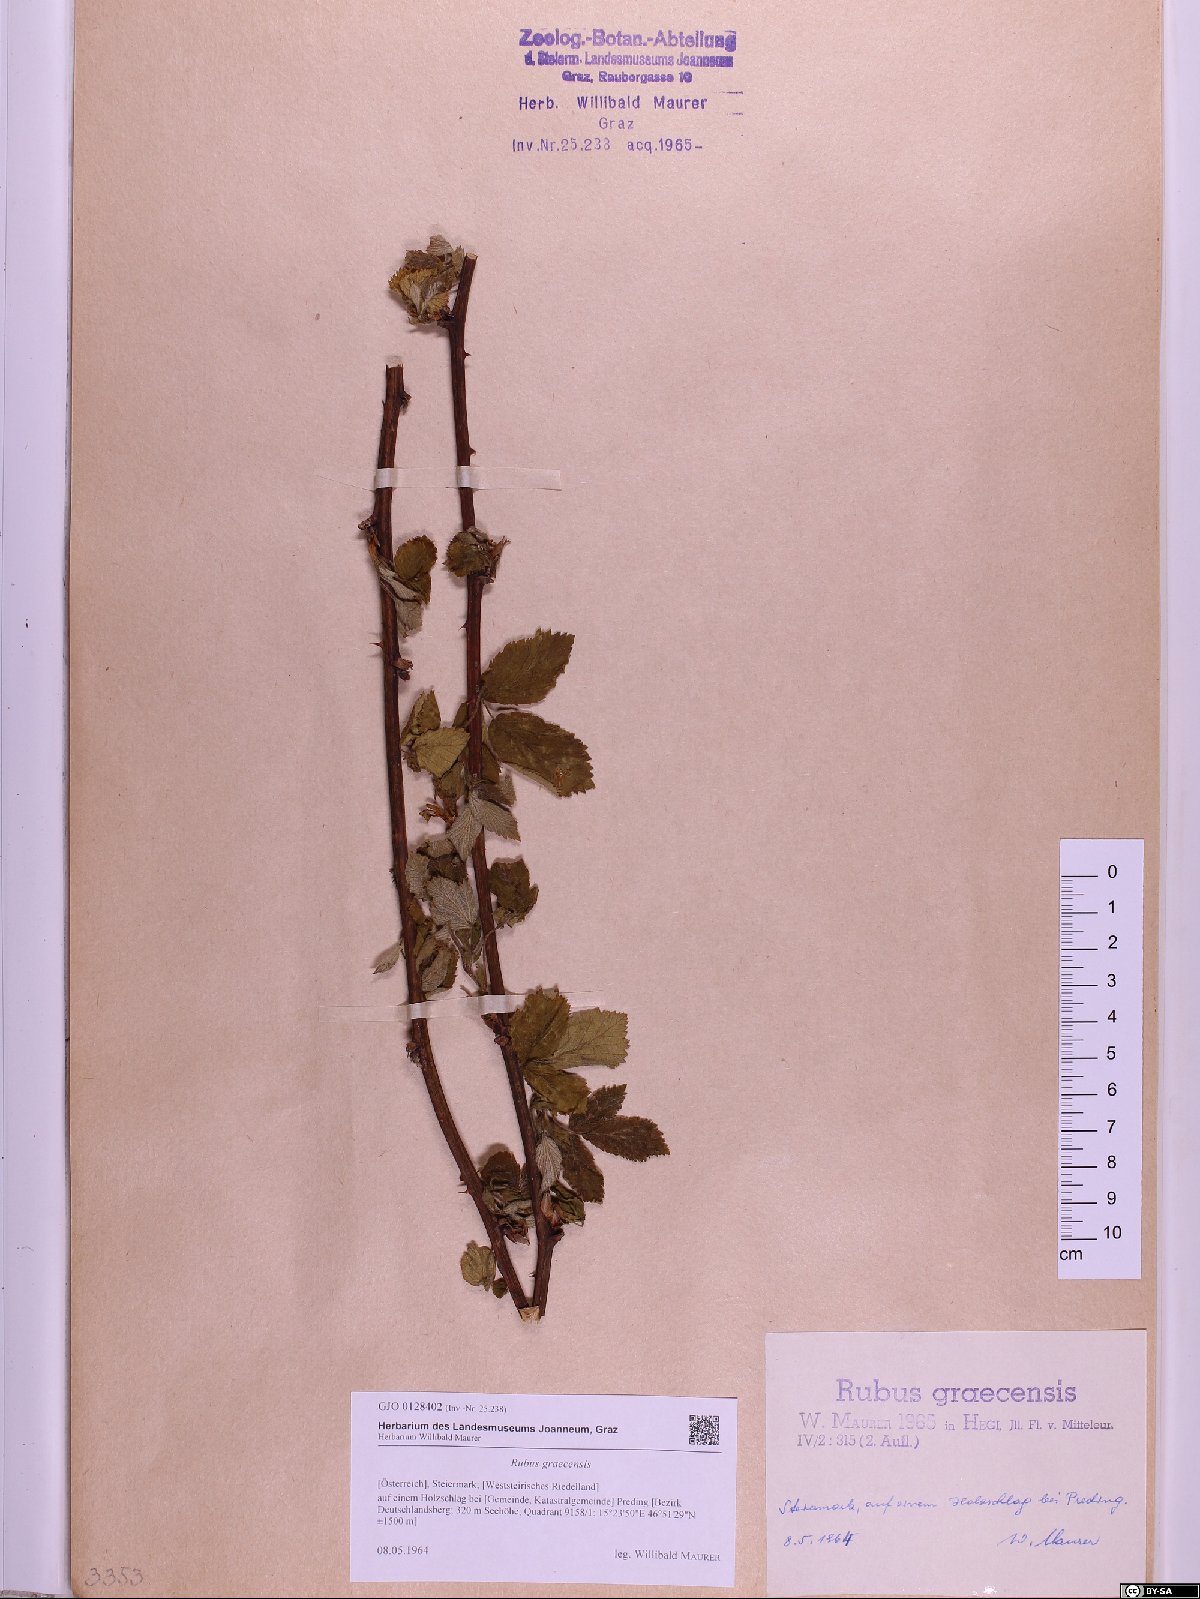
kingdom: Plantae
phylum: Tracheophyta
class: Magnoliopsida
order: Rosales
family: Rosaceae
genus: Rubus
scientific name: Rubus graecensis
